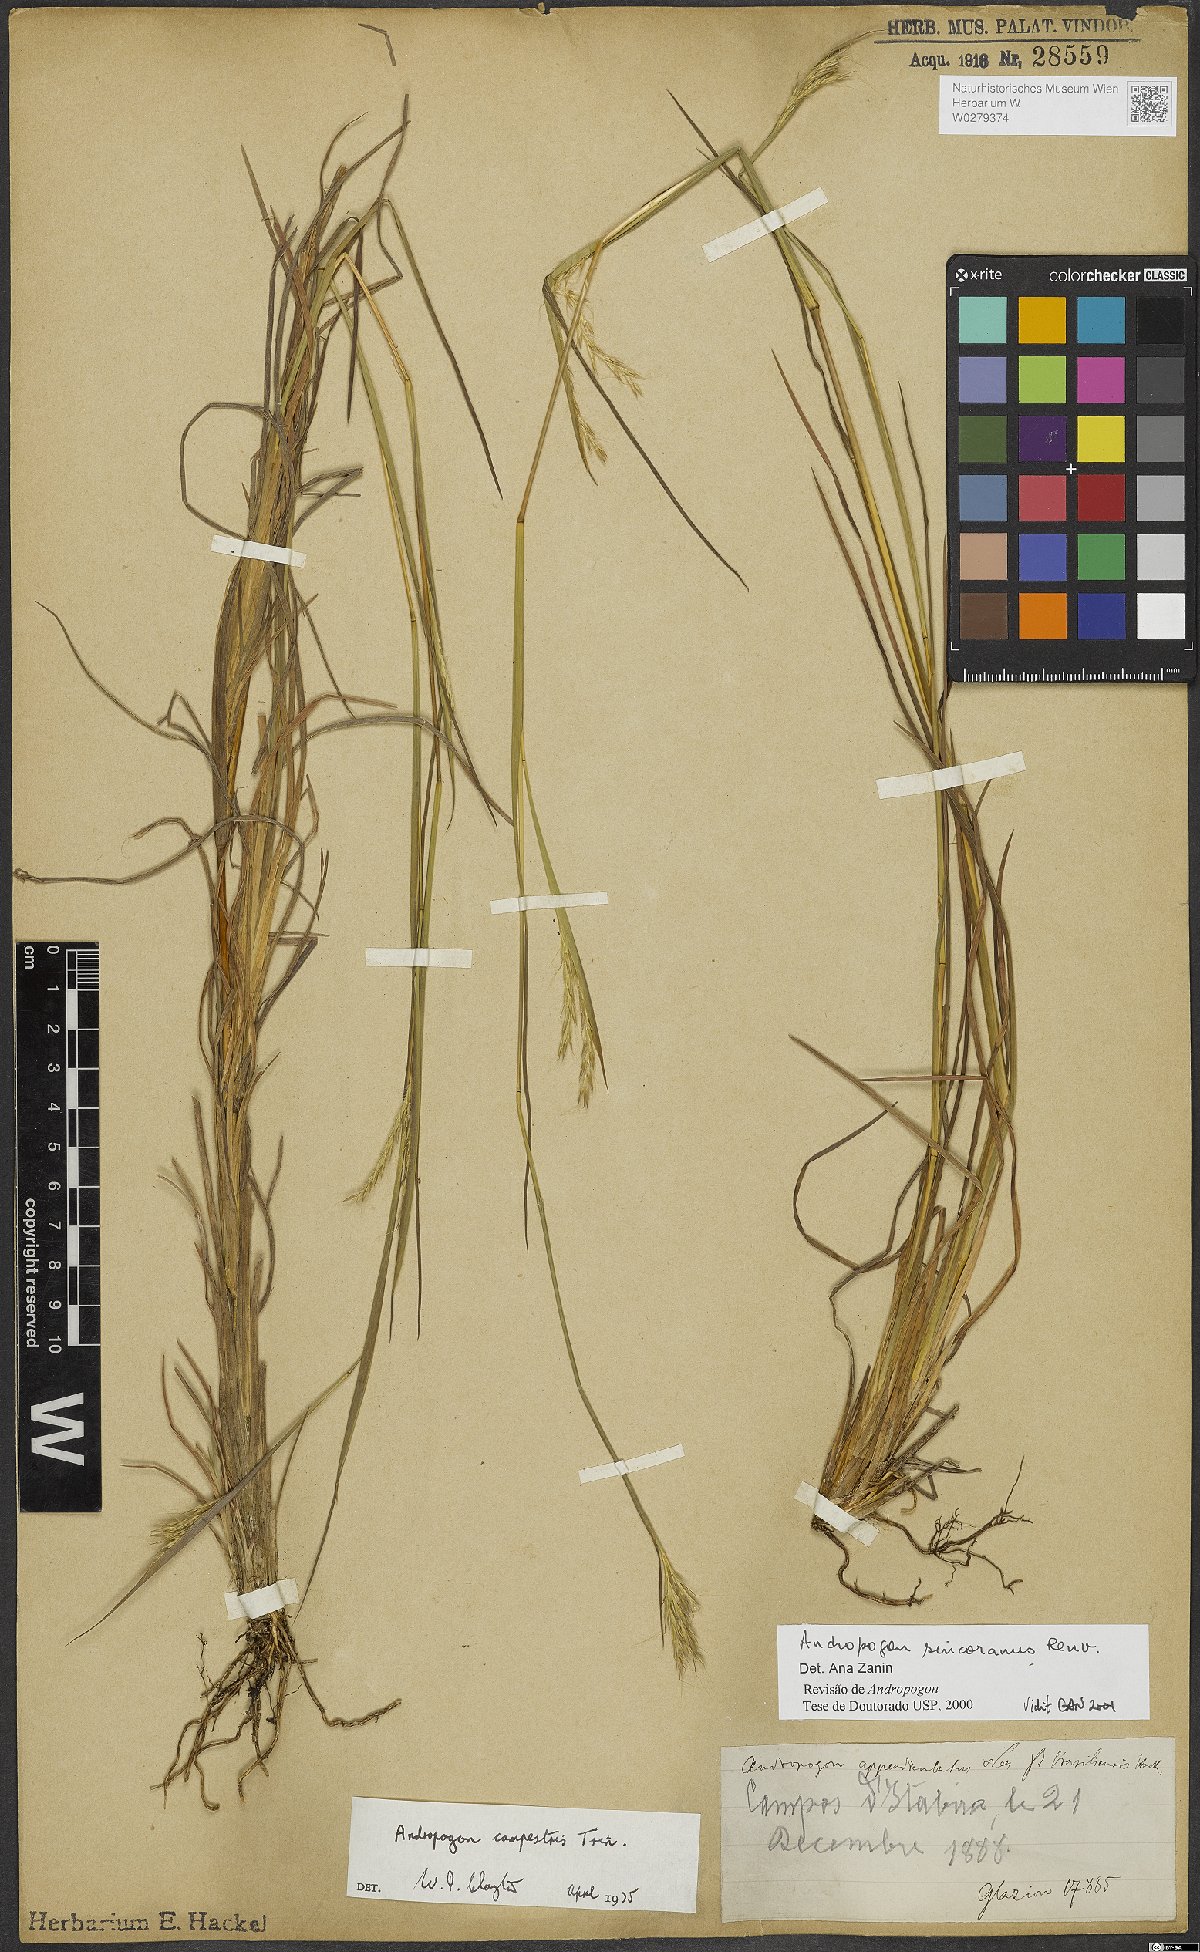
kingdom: Plantae
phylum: Tracheophyta
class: Liliopsida
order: Poales
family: Poaceae
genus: Andropogon
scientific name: Andropogon ingratus
